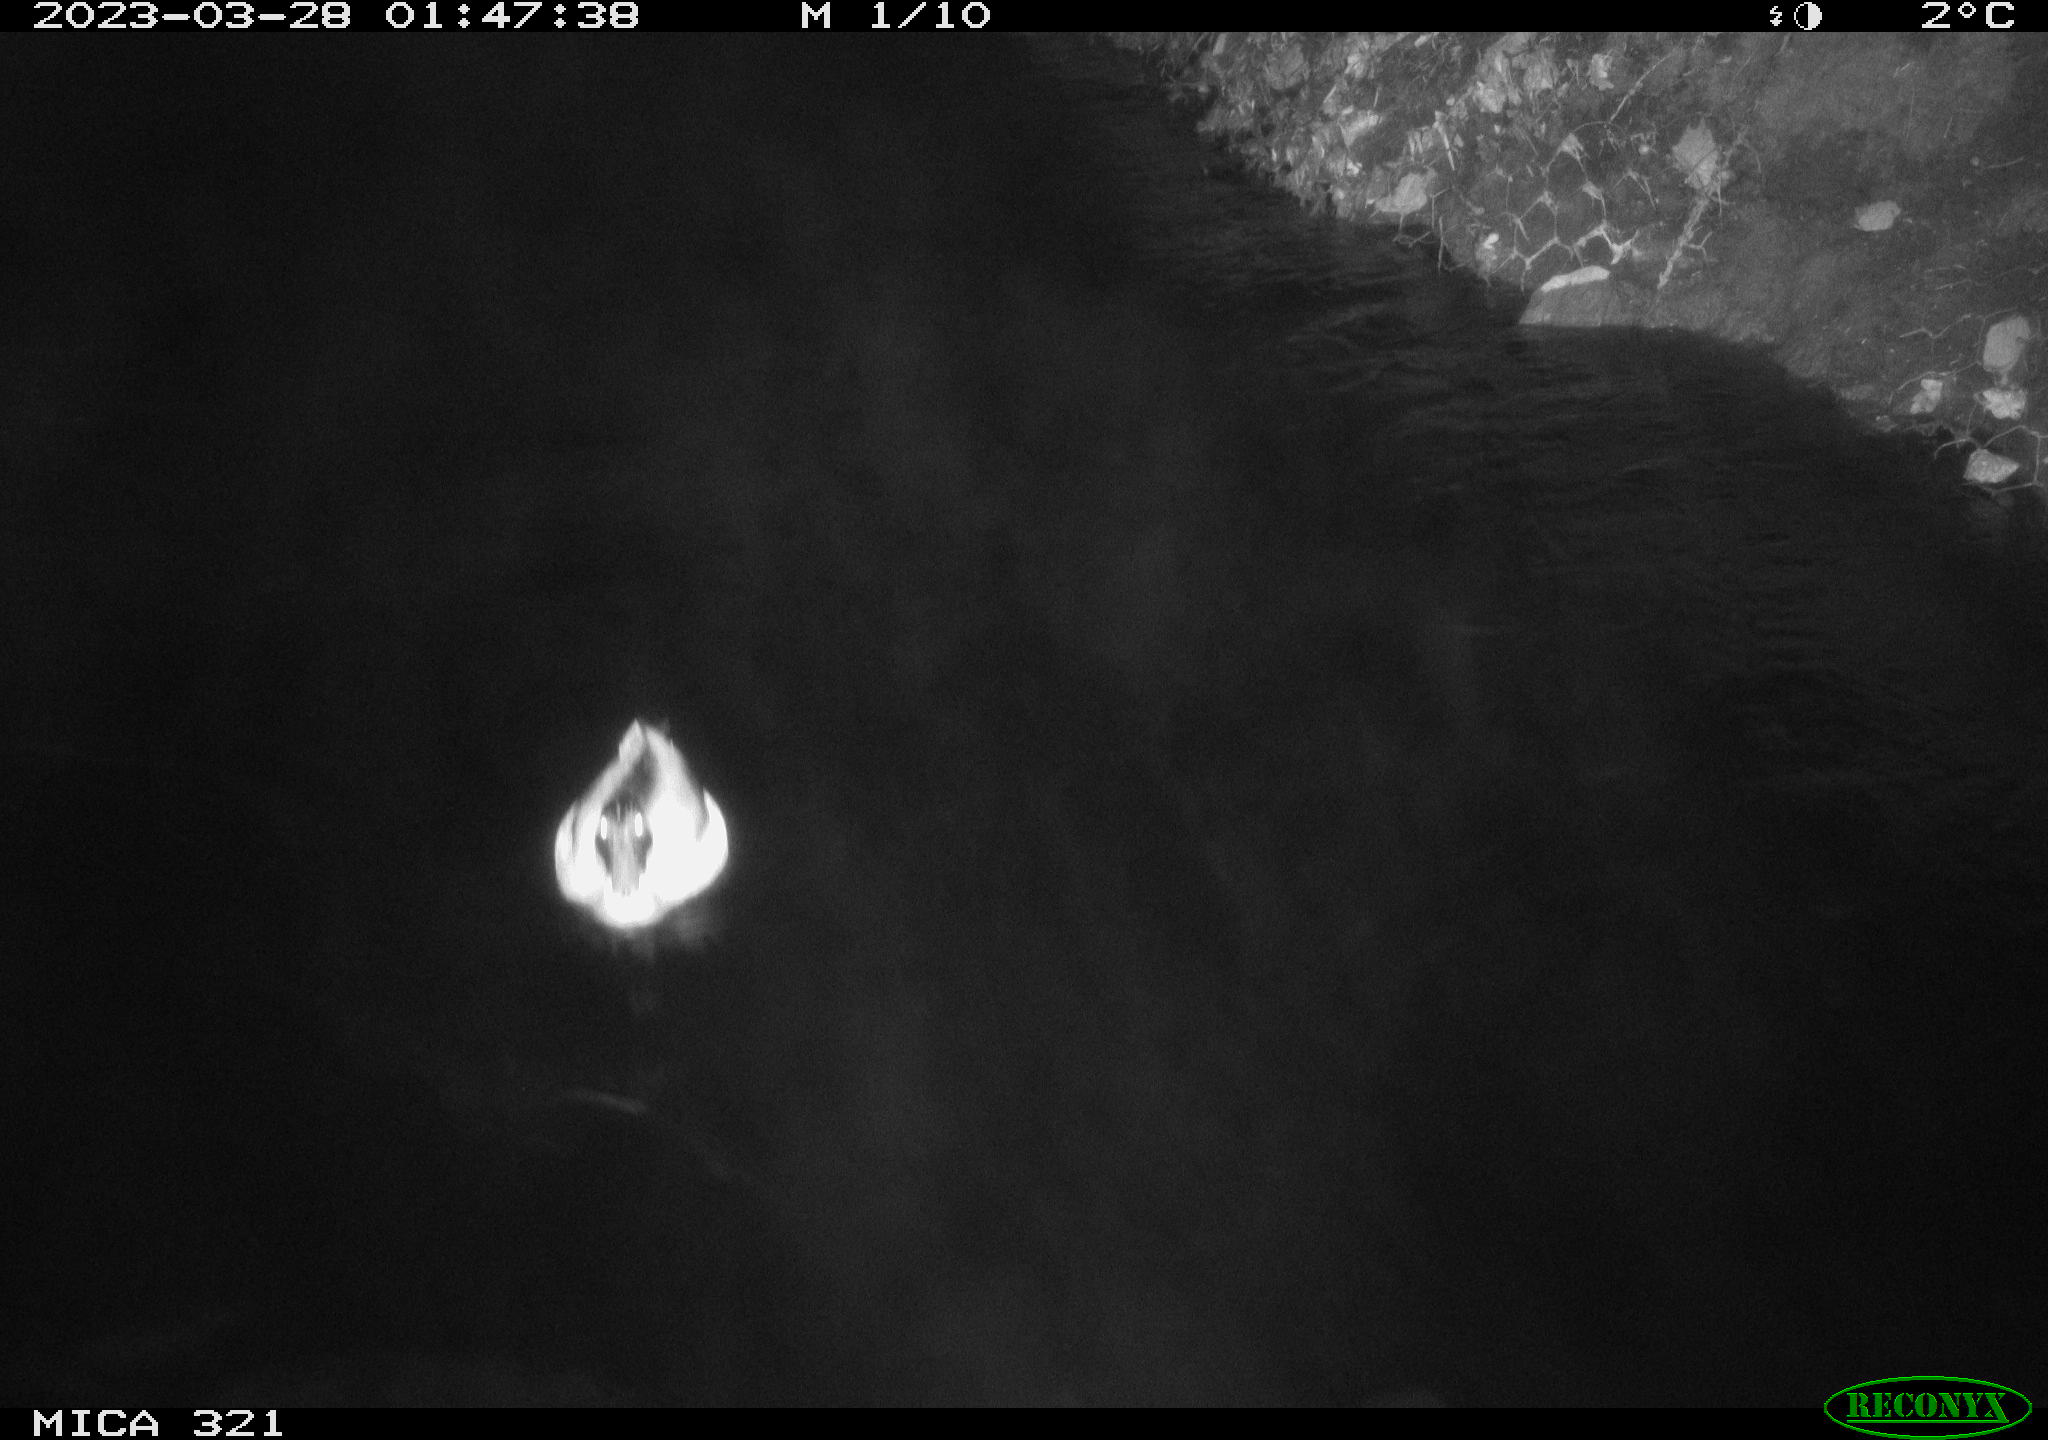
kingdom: Animalia
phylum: Chordata
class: Aves
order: Anseriformes
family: Anatidae
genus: Anas
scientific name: Anas
